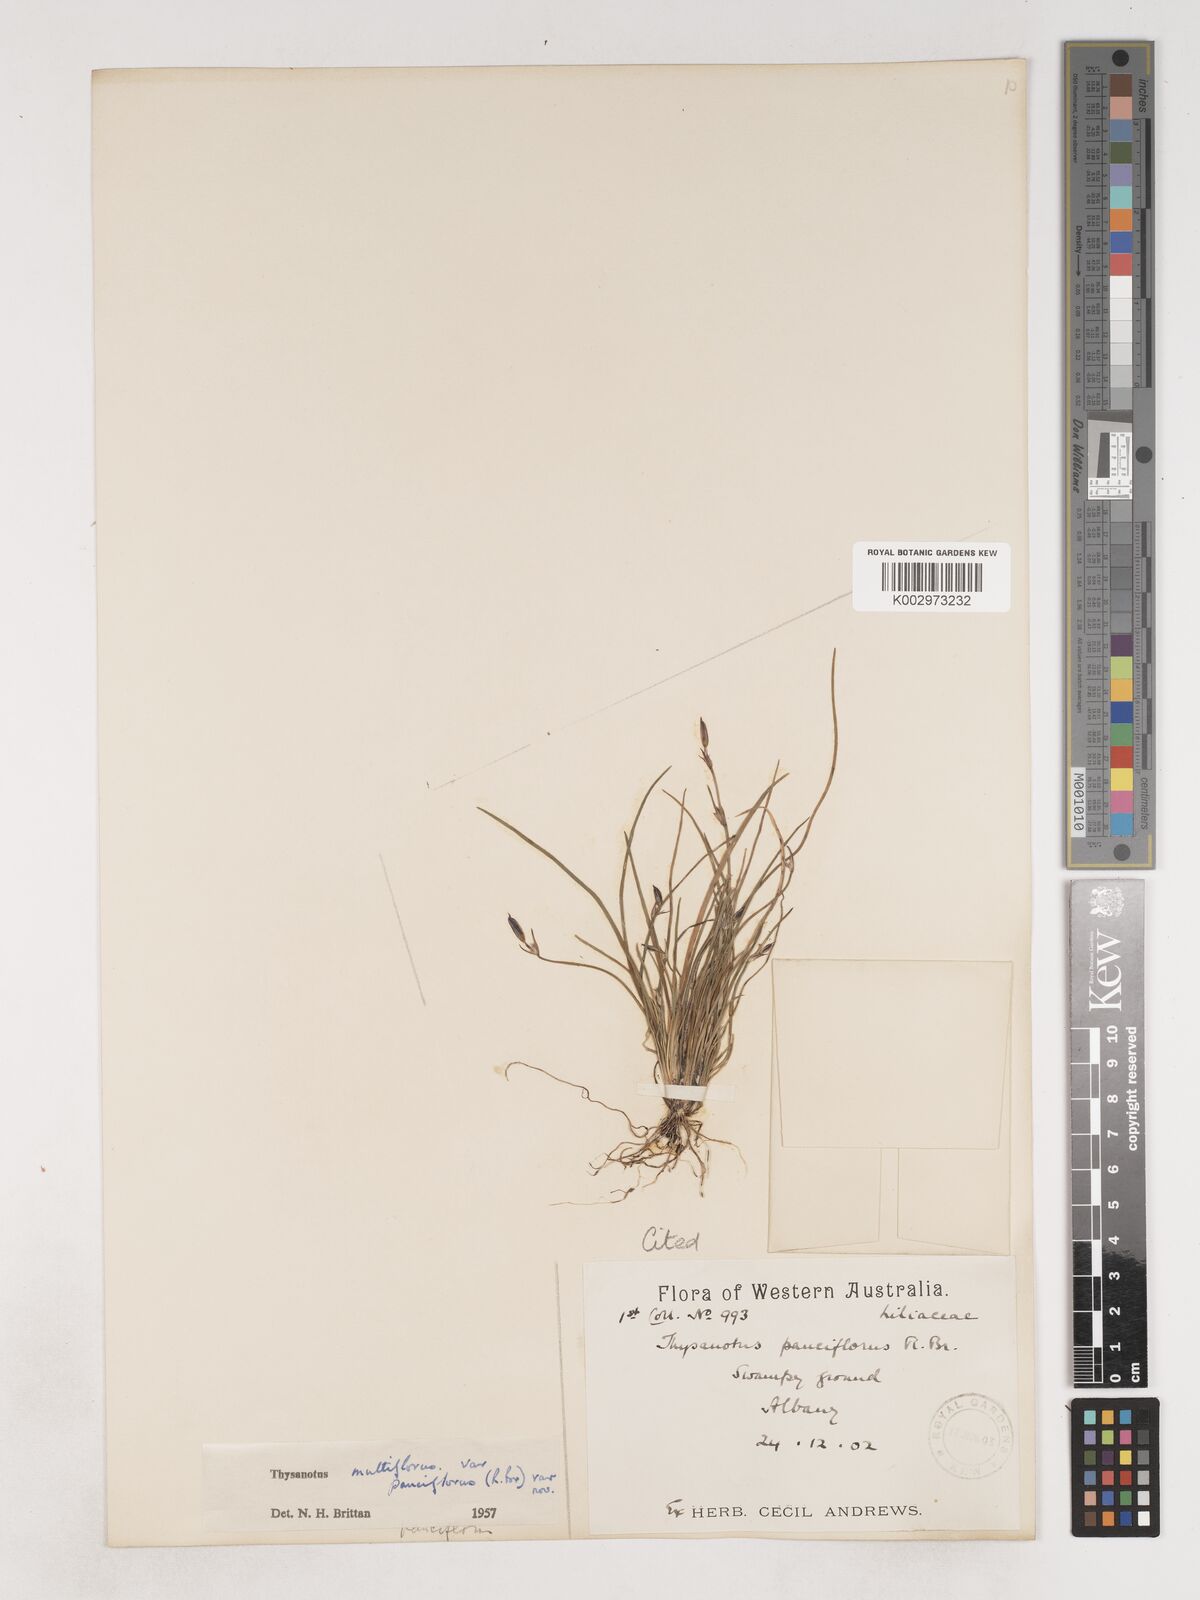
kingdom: Plantae
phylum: Tracheophyta
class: Liliopsida
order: Asparagales
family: Asparagaceae
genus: Thysanotus
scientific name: Thysanotus pauciflorus
